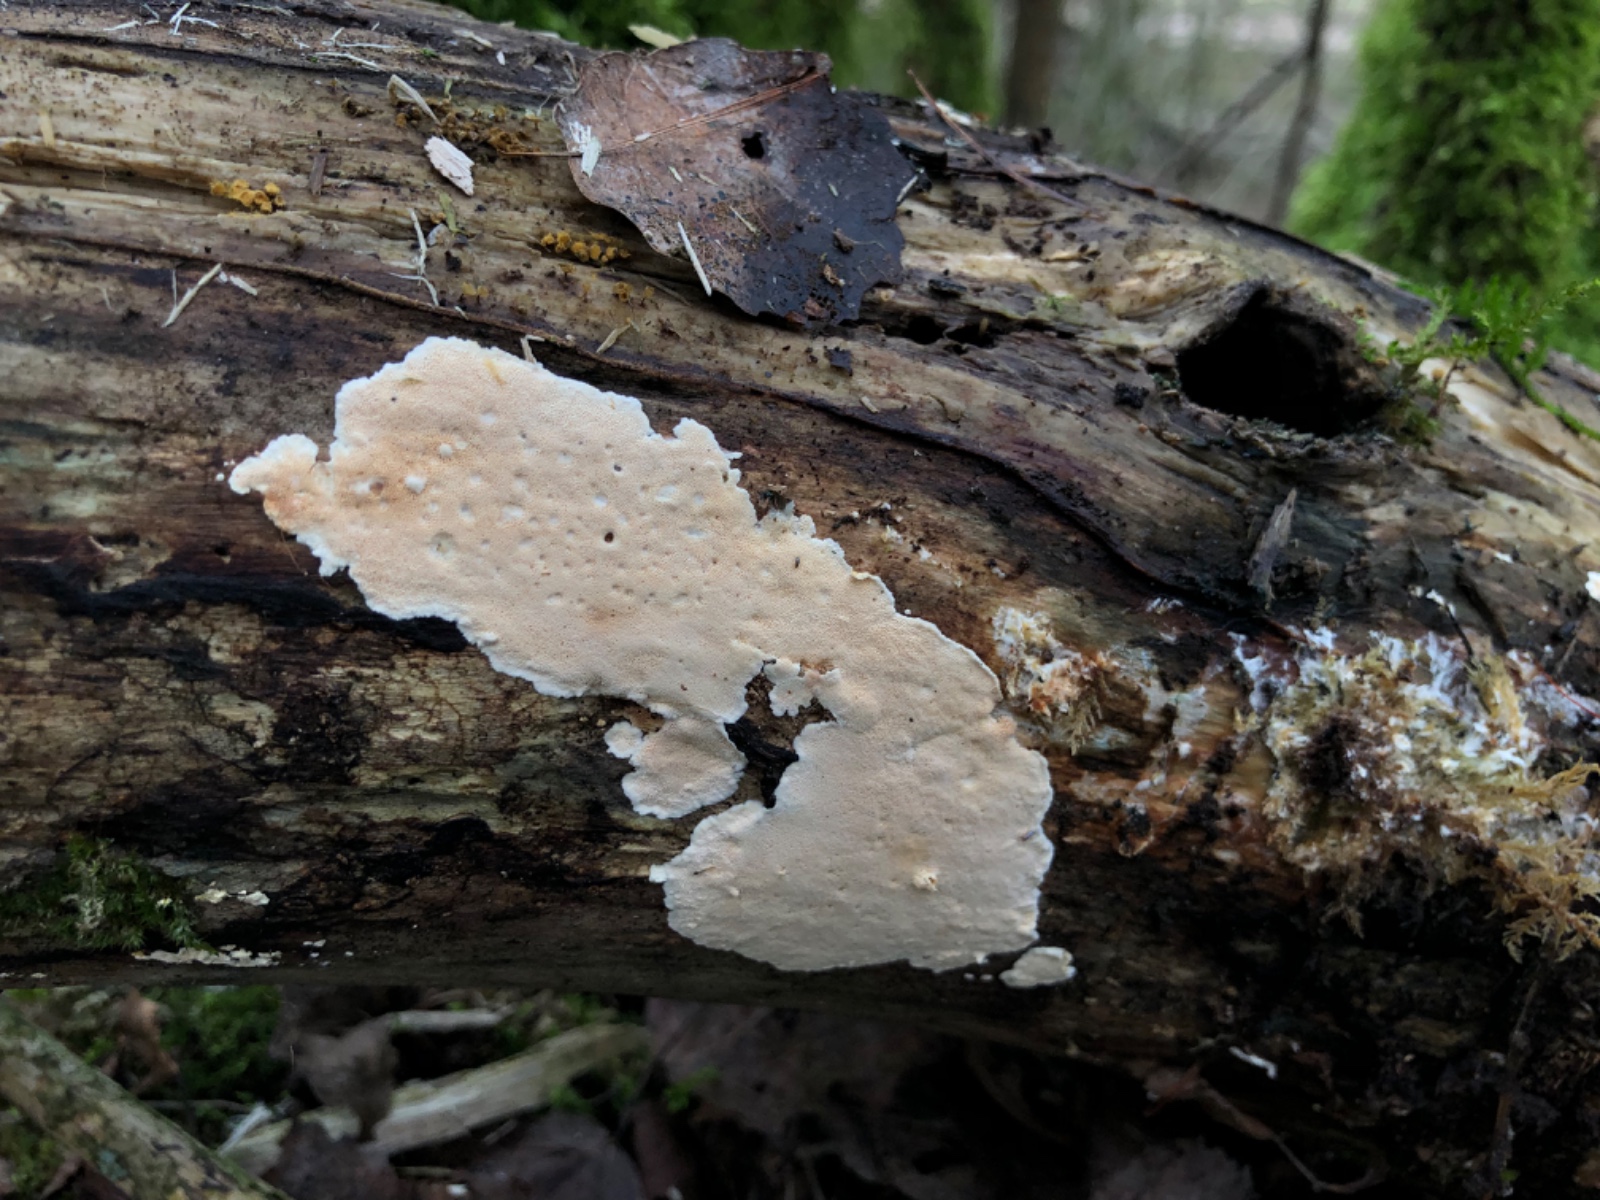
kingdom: Fungi
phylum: Basidiomycota
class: Agaricomycetes
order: Polyporales
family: Steccherinaceae
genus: Junghuhnia
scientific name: Junghuhnia nitida
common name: almindelig skønporesvamp
